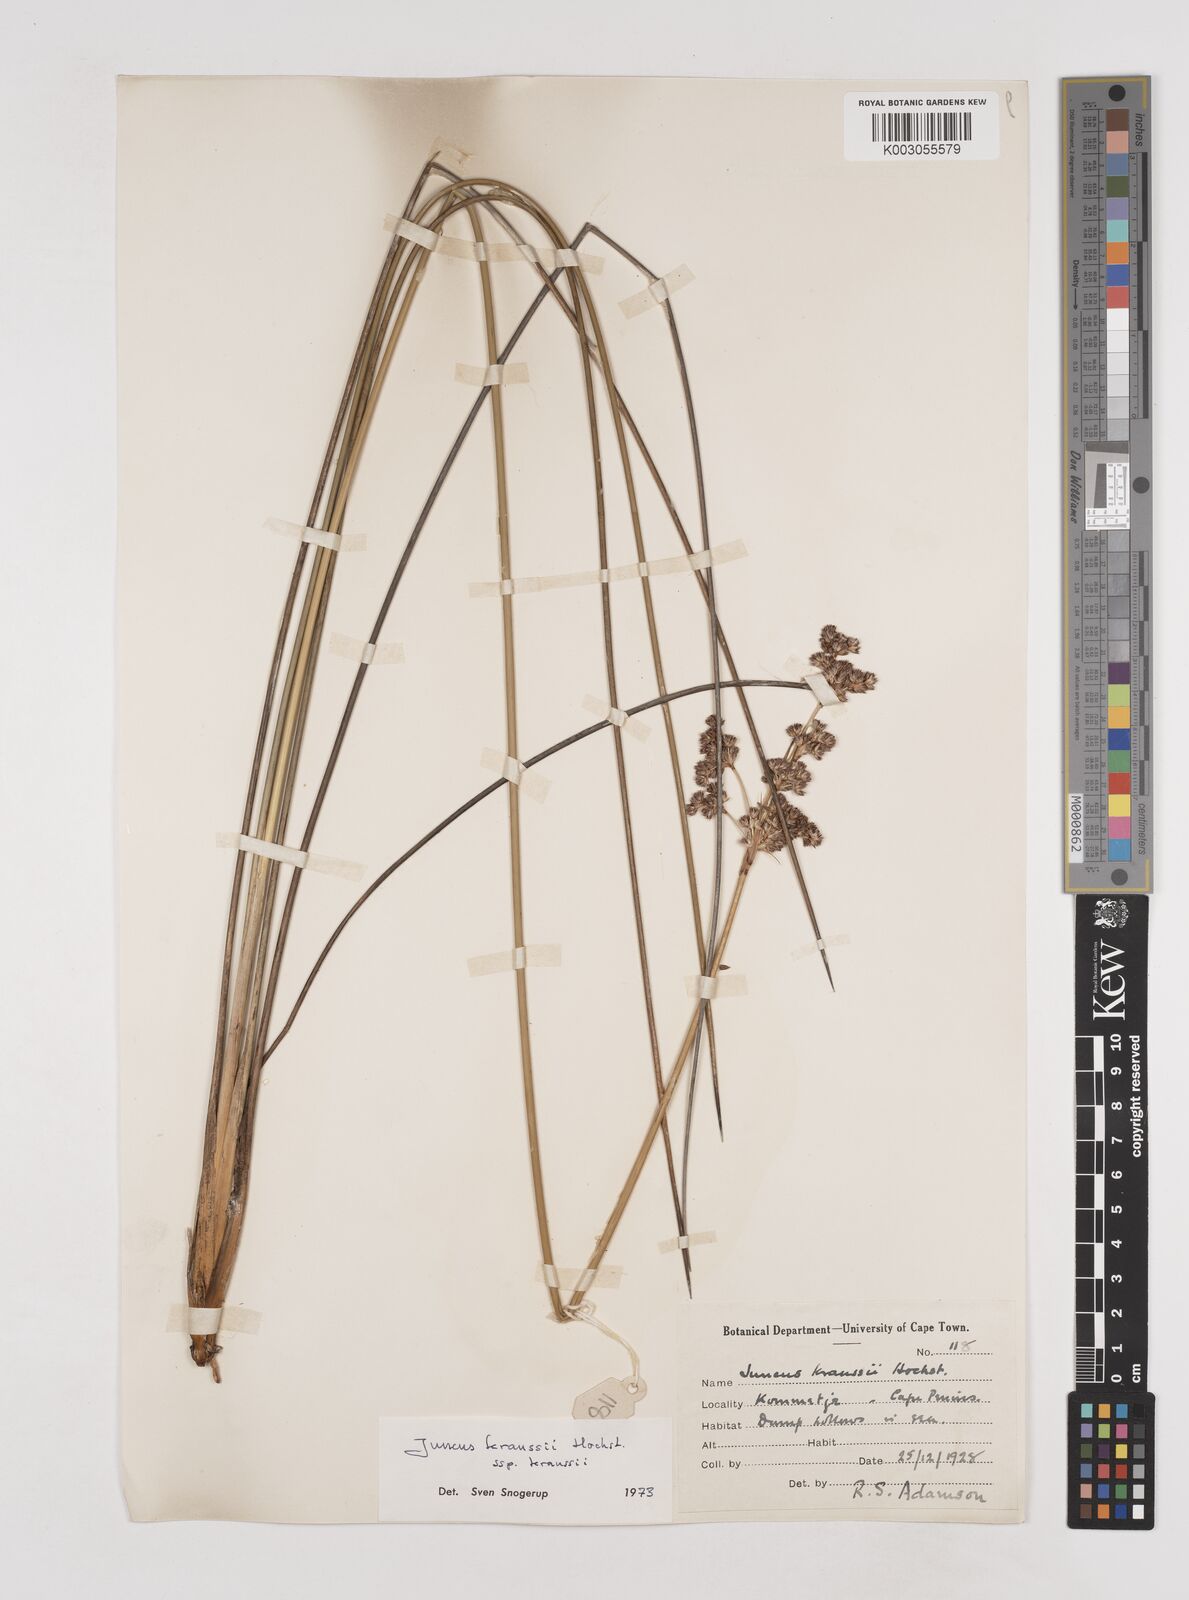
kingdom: Plantae
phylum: Tracheophyta
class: Liliopsida
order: Poales
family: Juncaceae
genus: Juncus
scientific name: Juncus kraussii
